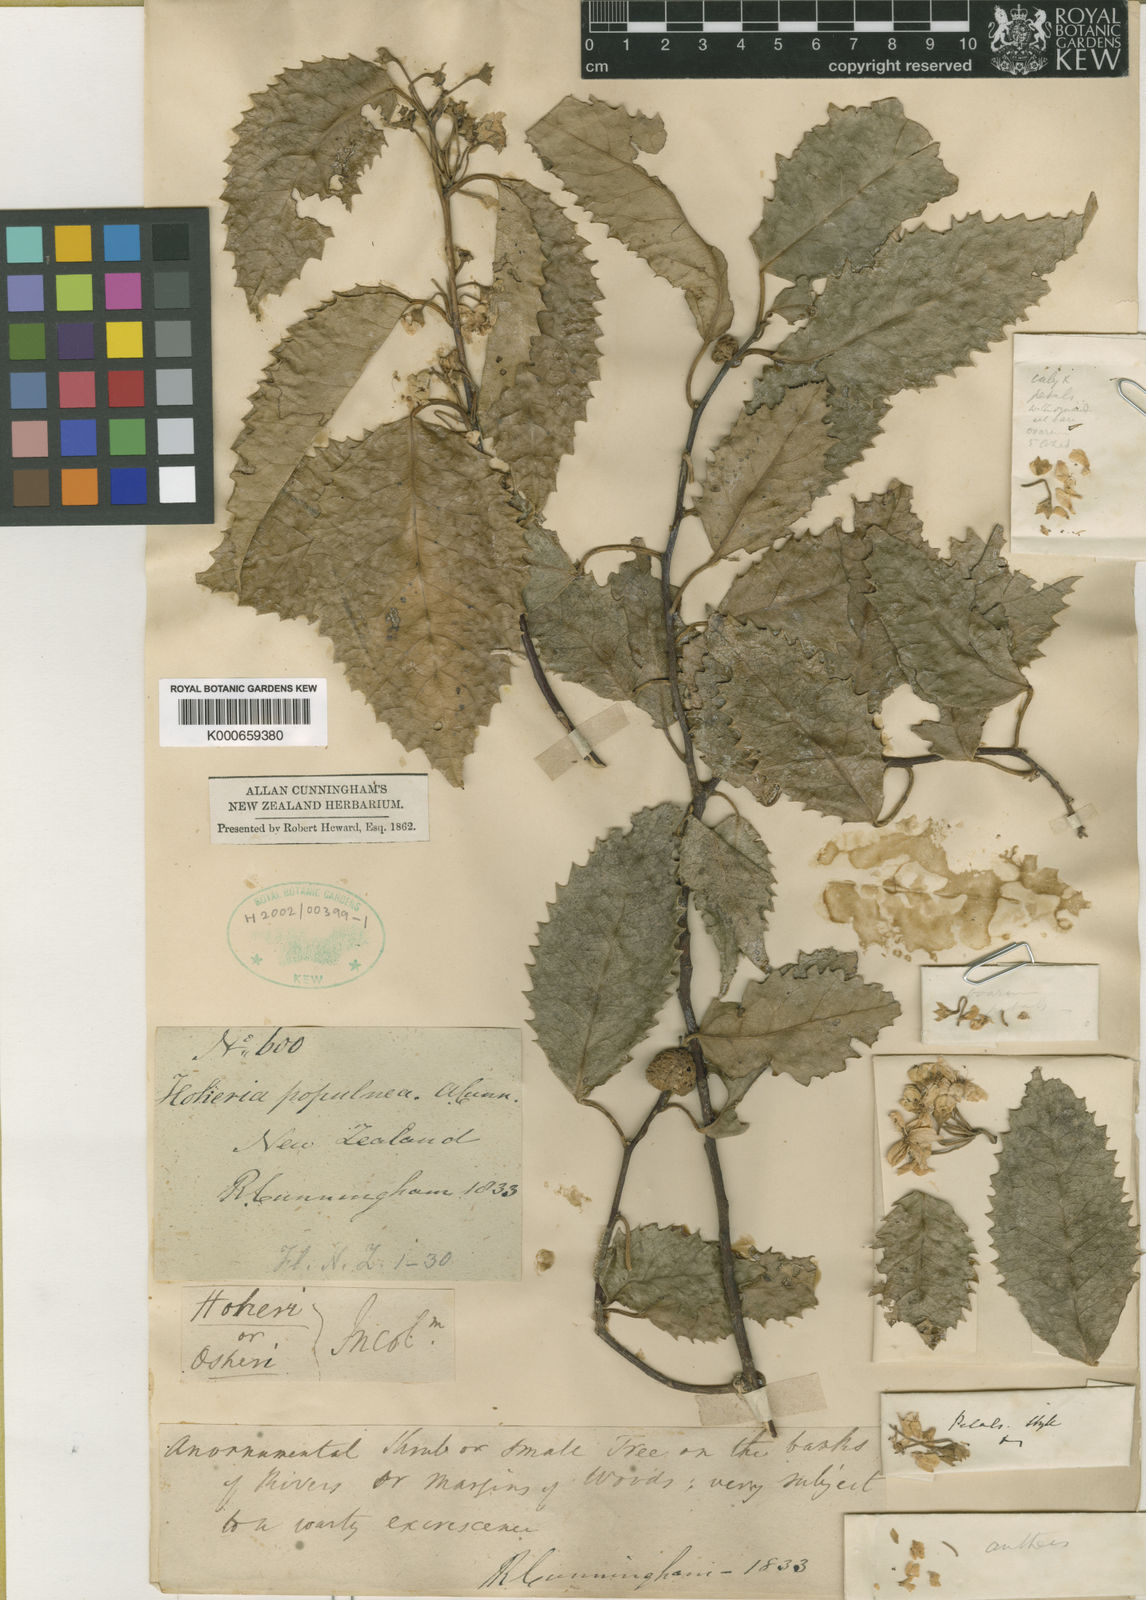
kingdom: Plantae
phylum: Tracheophyta
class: Magnoliopsida
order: Malvales
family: Malvaceae
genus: Hoheria
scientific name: Hoheria populnea
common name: Lacebark
